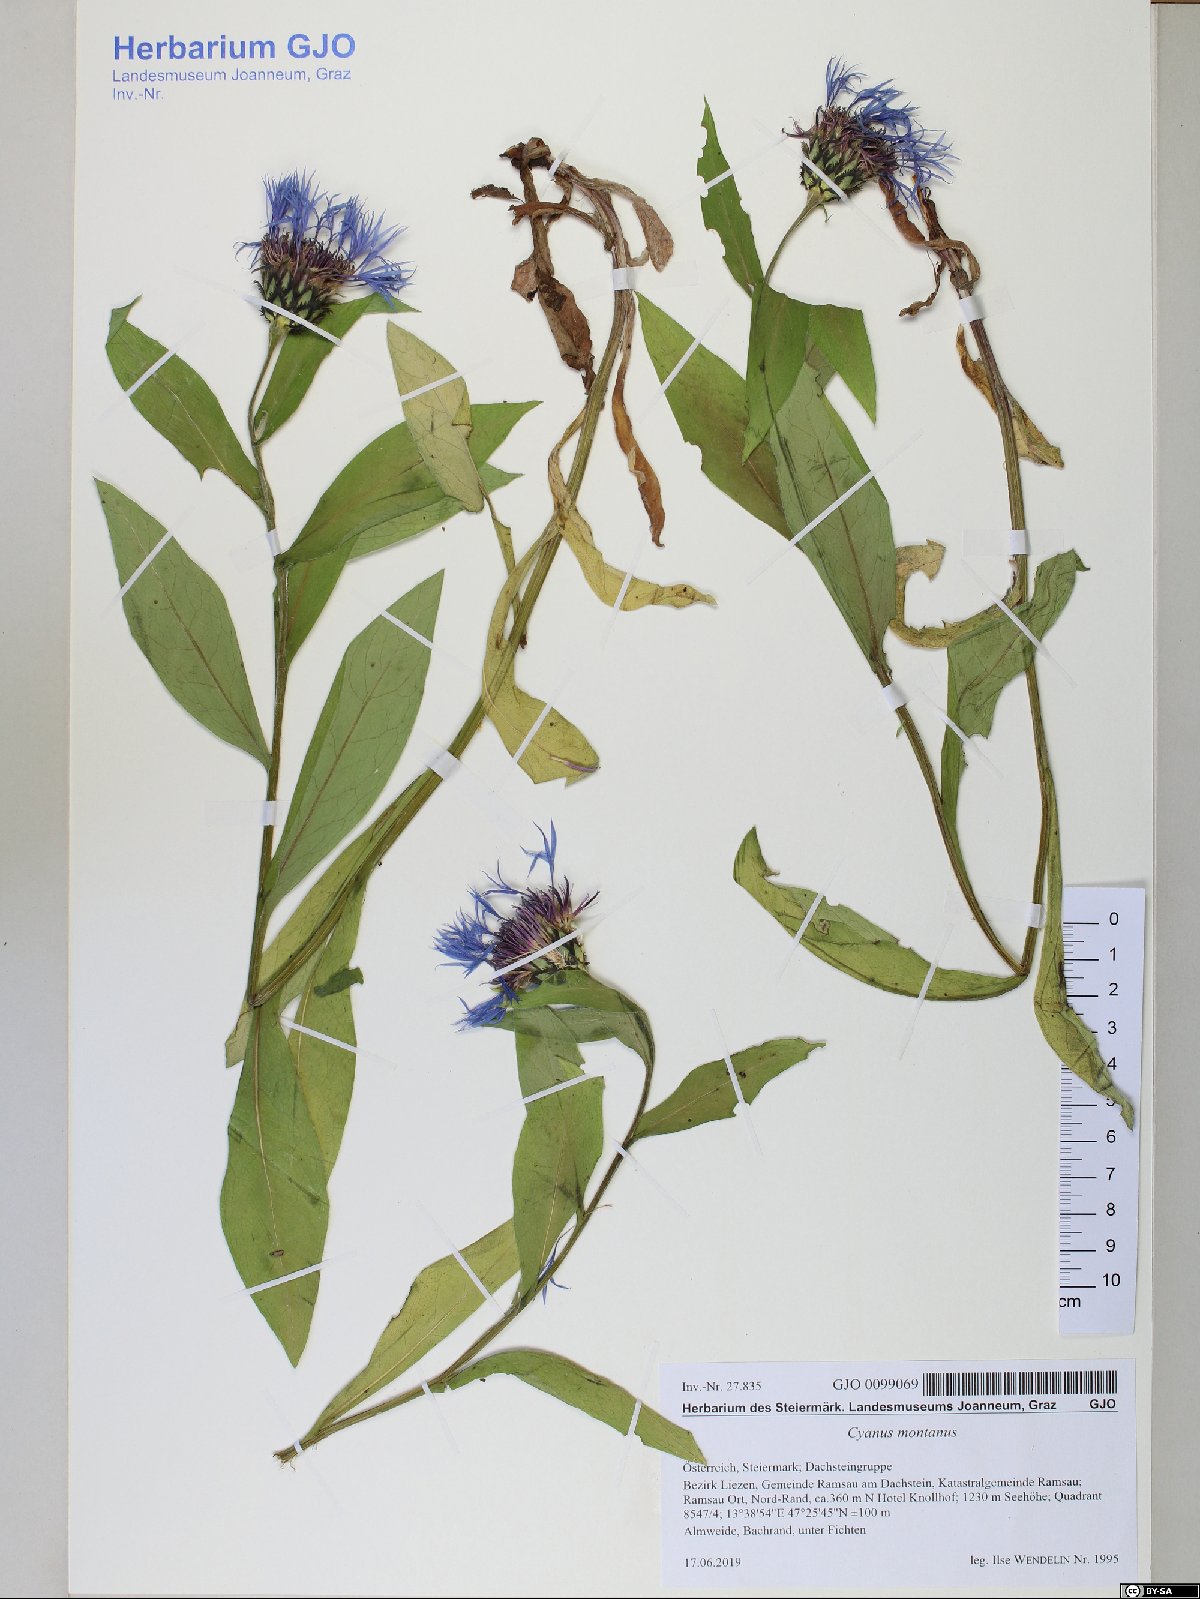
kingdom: Plantae
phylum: Tracheophyta
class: Magnoliopsida
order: Asterales
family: Asteraceae
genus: Centaurea
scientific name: Centaurea montana
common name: Perennial cornflower
